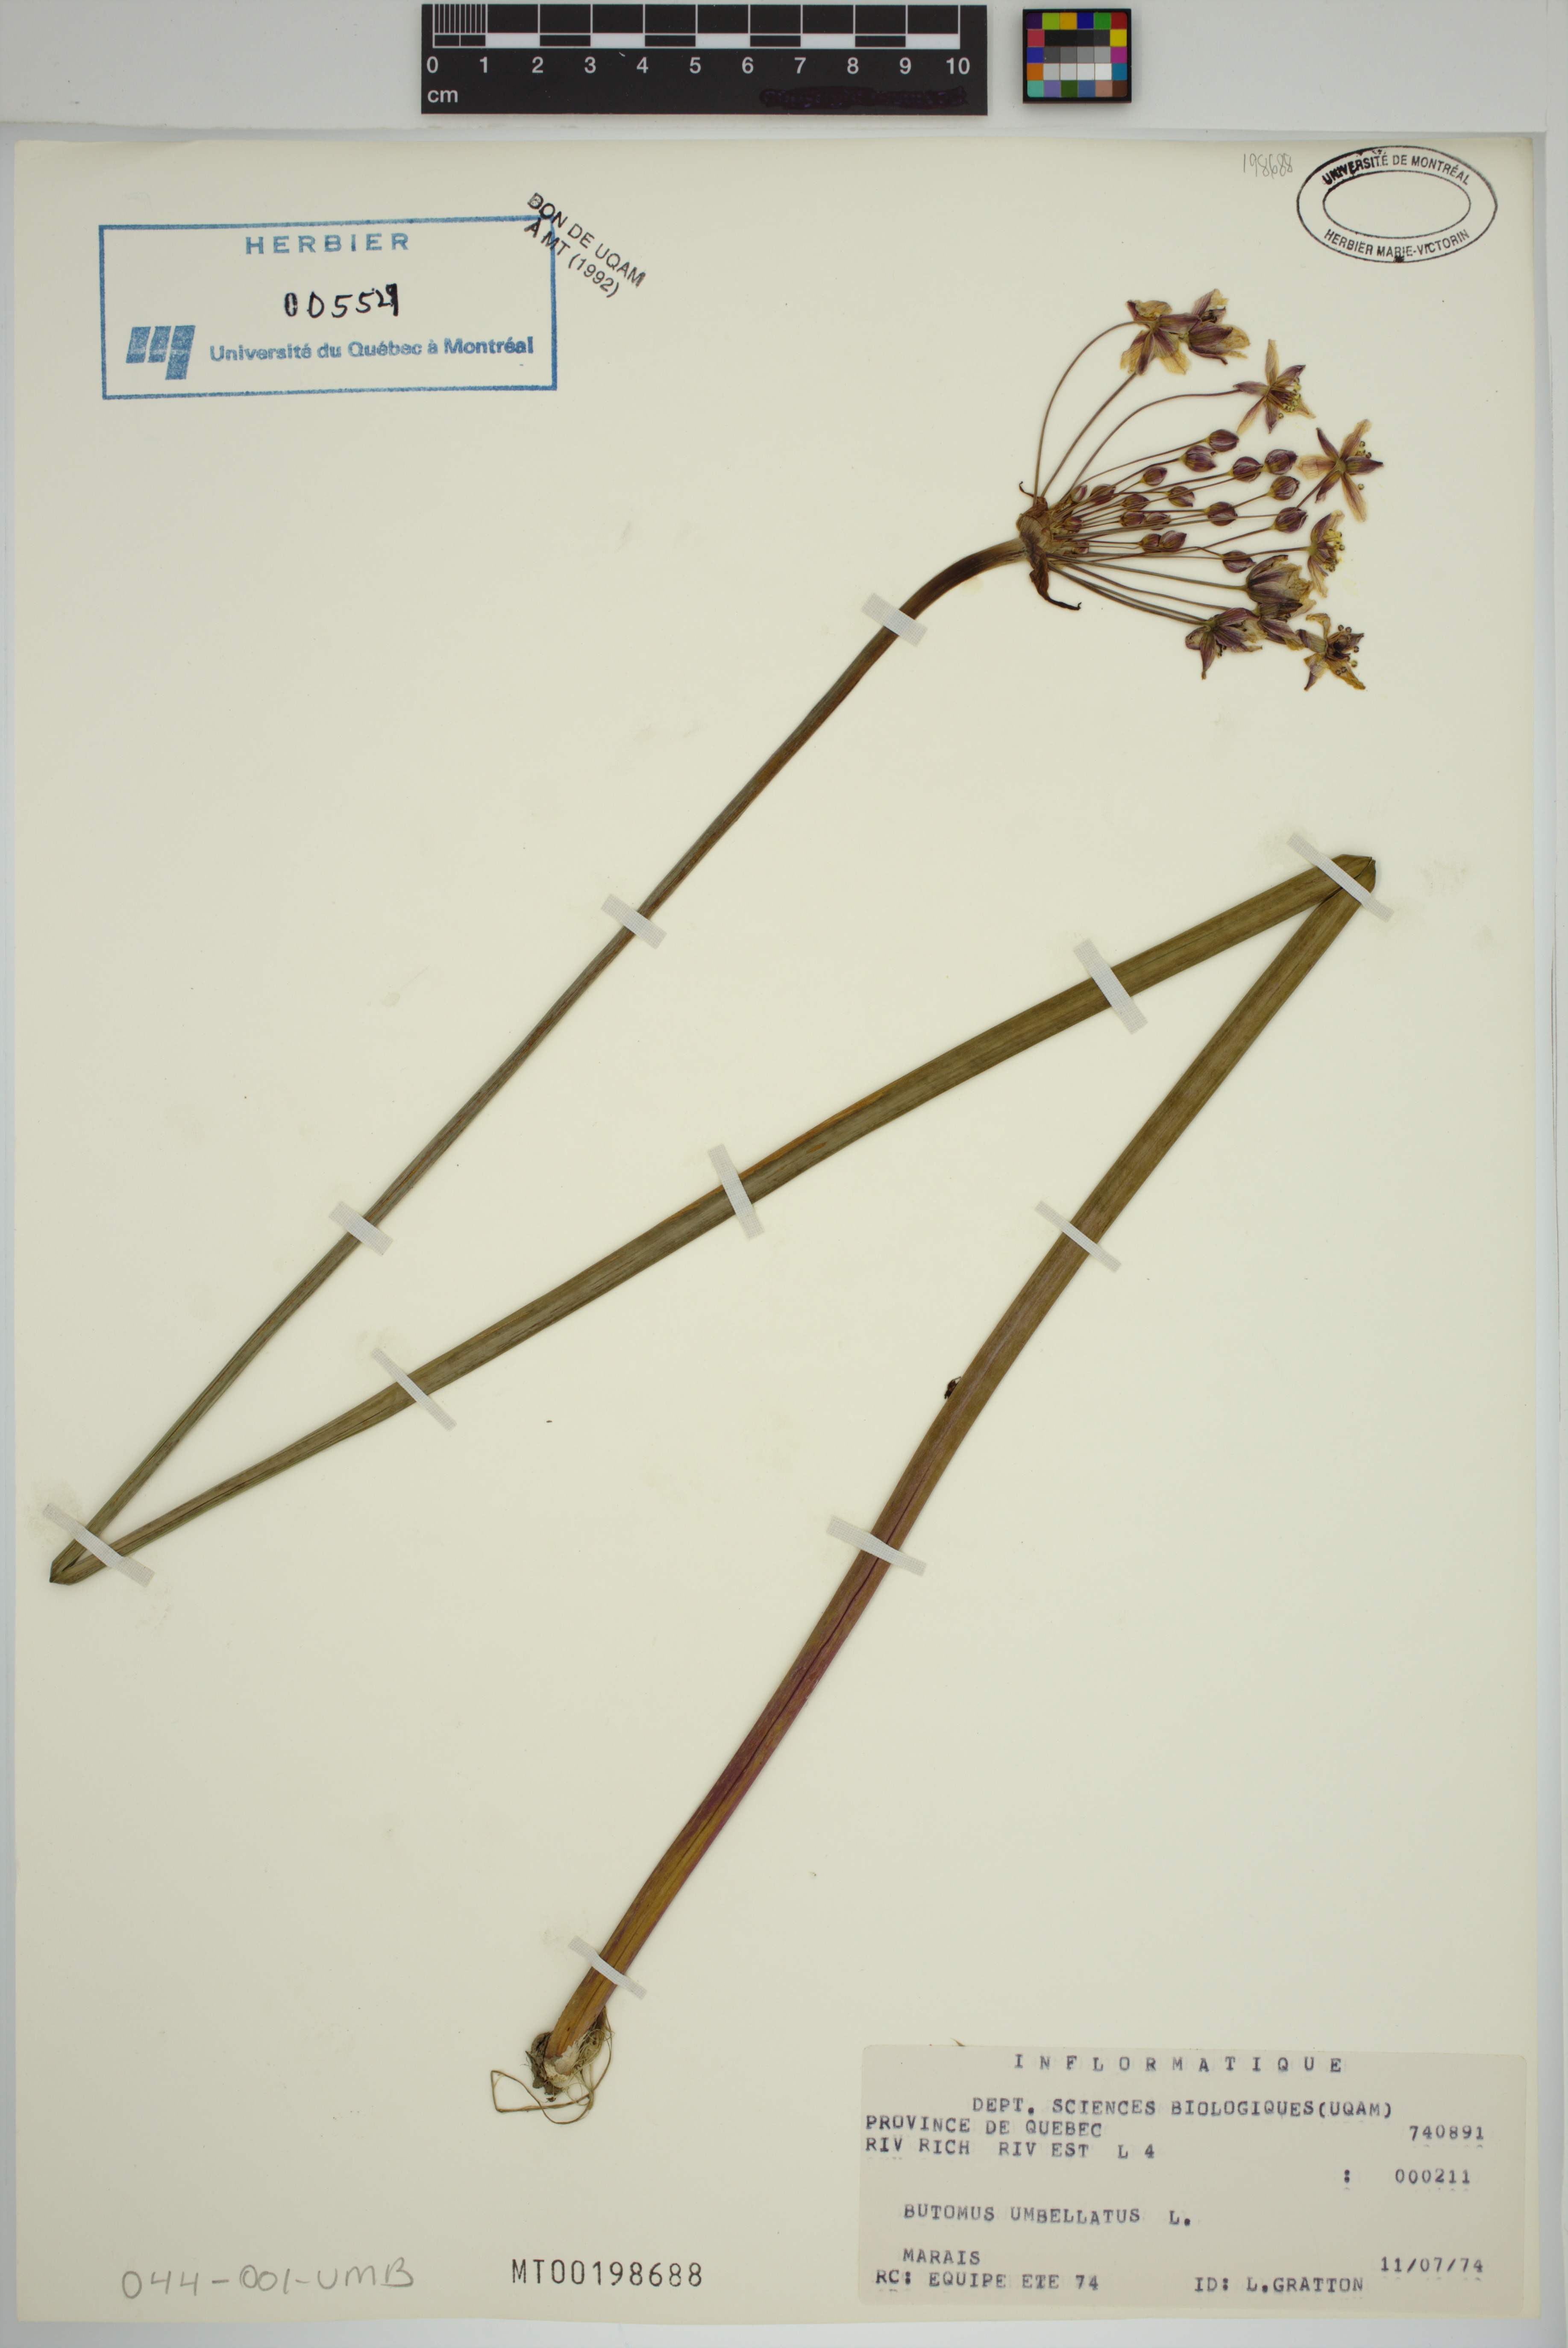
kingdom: Plantae
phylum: Tracheophyta
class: Liliopsida
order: Alismatales
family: Butomaceae
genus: Butomus
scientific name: Butomus umbellatus
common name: Flowering-rush
